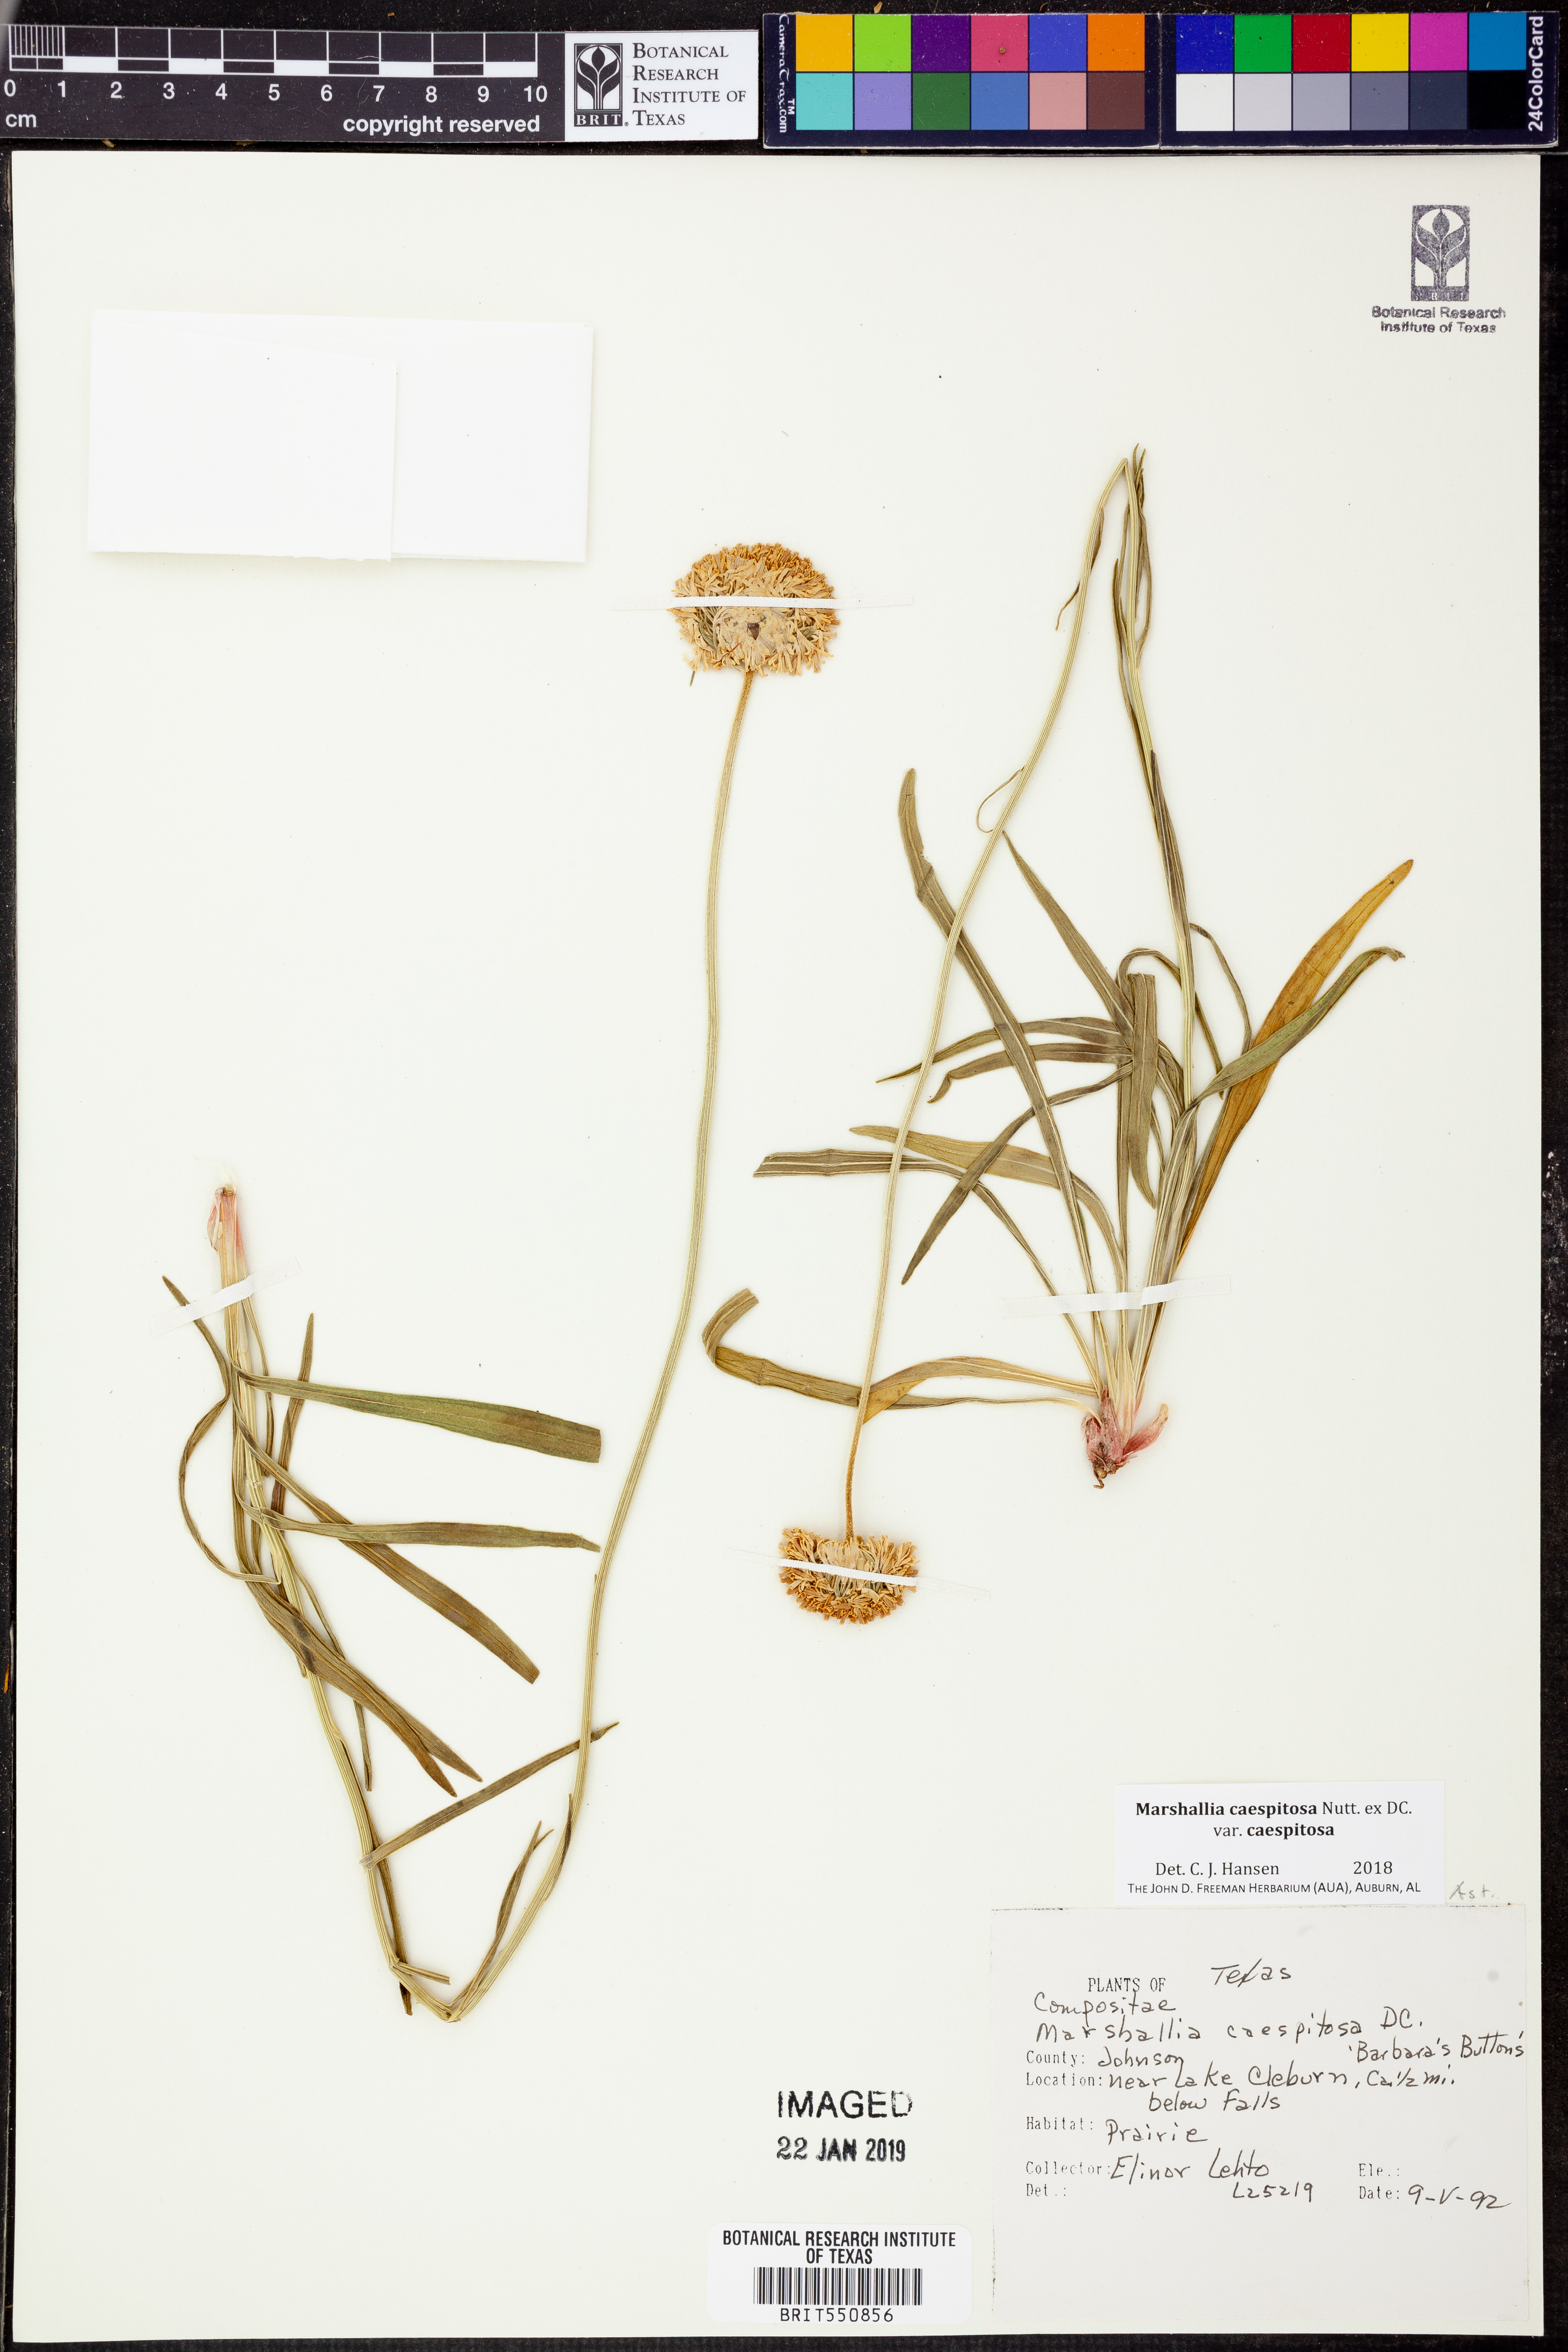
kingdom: Plantae
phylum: Tracheophyta
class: Magnoliopsida
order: Asterales
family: Asteraceae
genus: Marshallia
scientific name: Marshallia caespitosa
